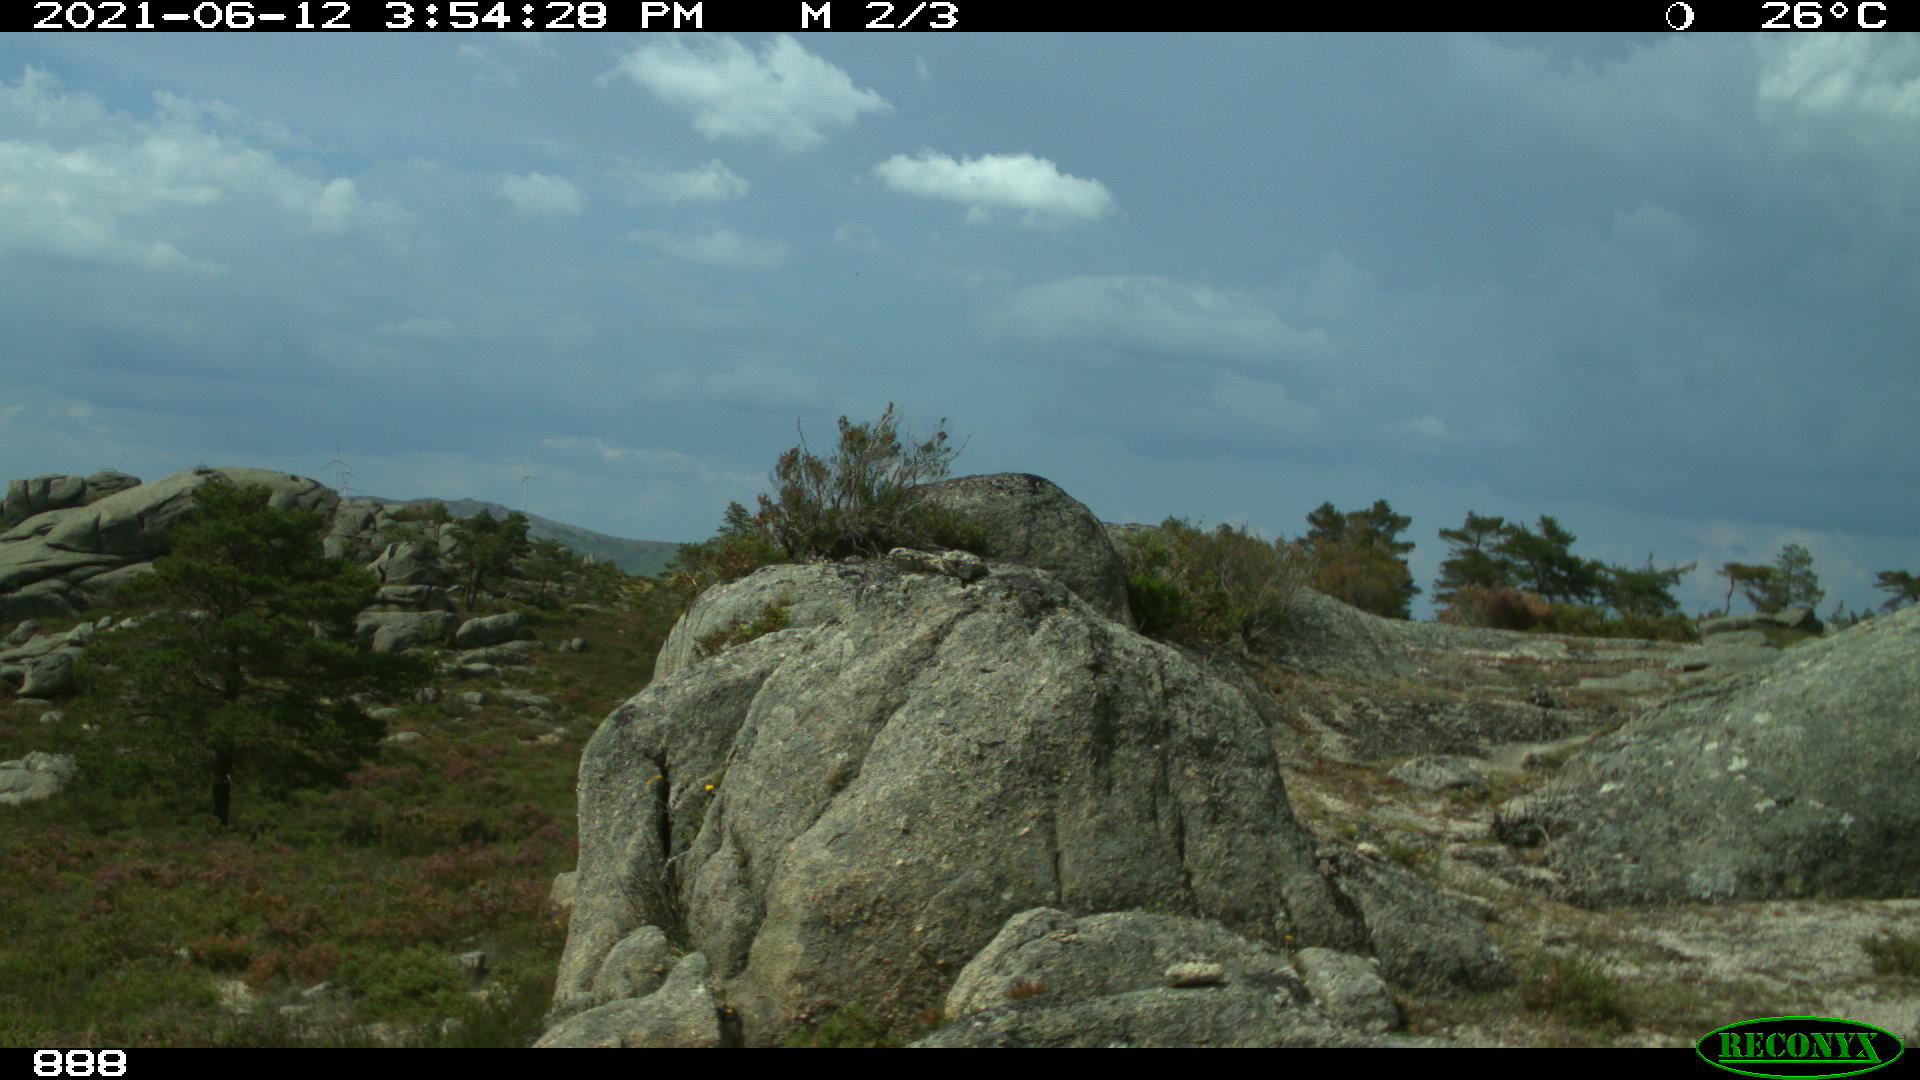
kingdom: Animalia
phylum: Chordata
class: Mammalia
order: Artiodactyla
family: Bovidae
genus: Bos
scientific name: Bos taurus
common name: Domesticated cattle
